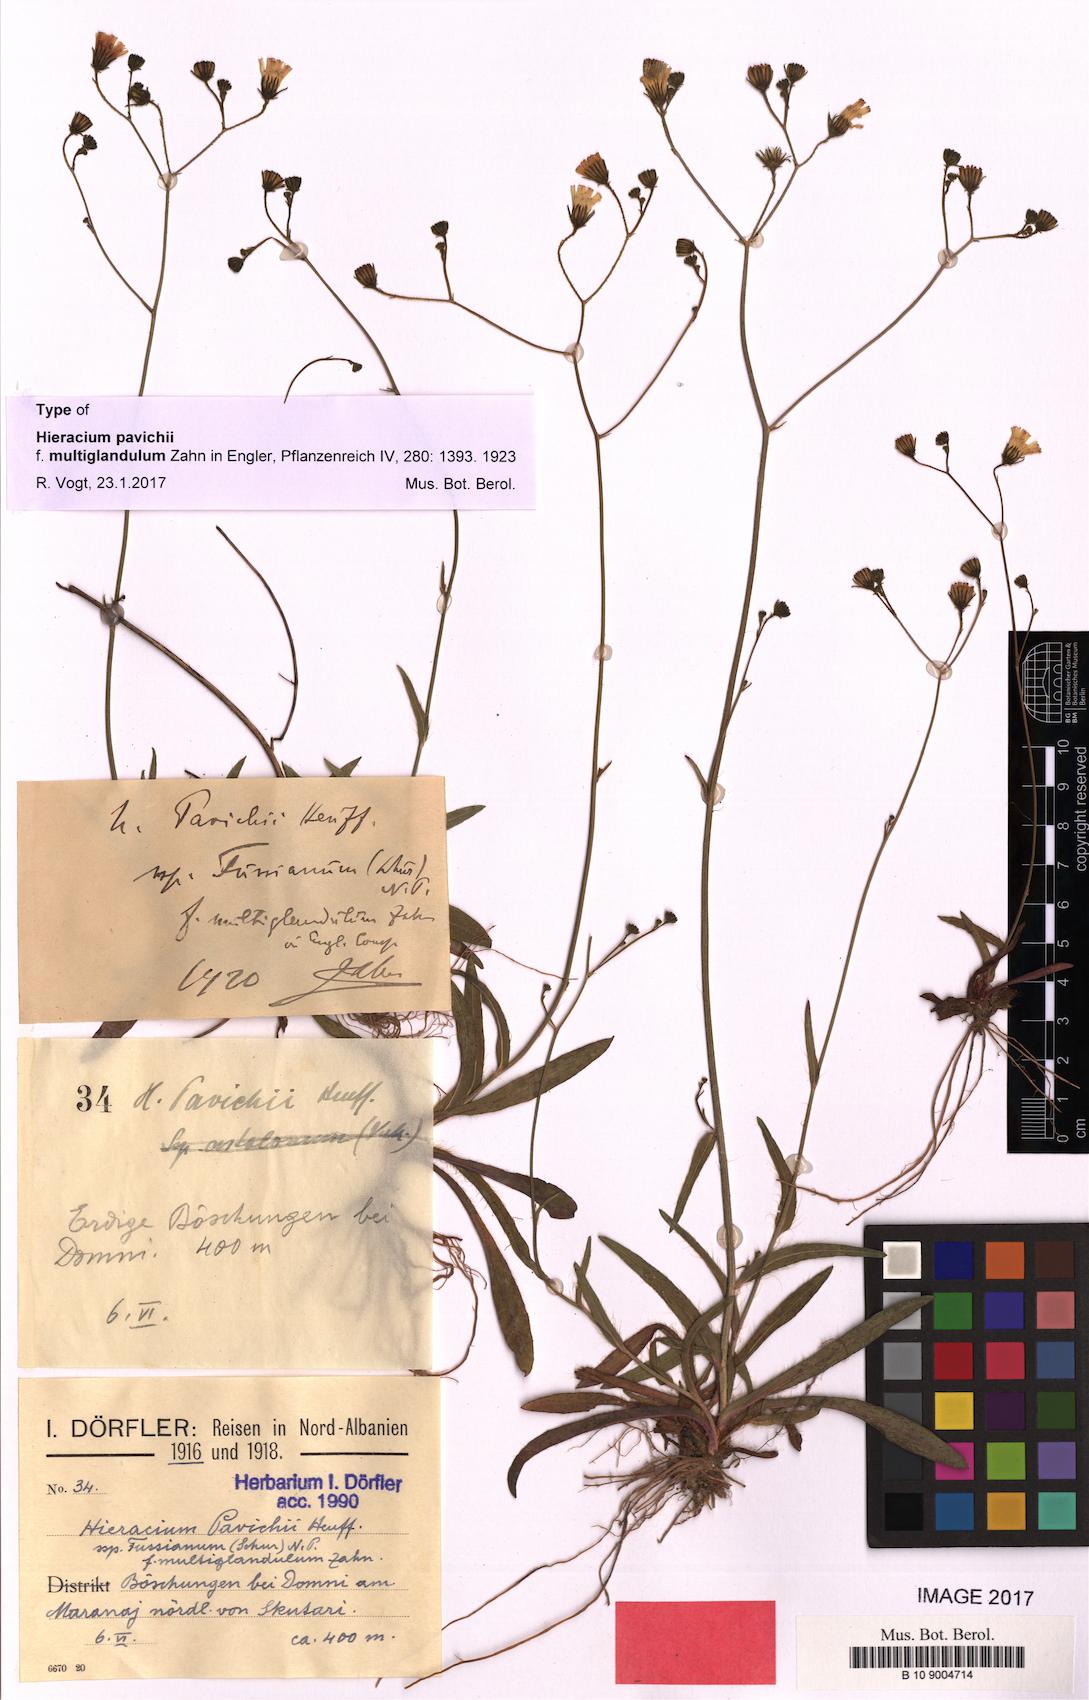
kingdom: Plantae
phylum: Tracheophyta
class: Magnoliopsida
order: Asterales
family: Asteraceae
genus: Pilosella
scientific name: Pilosella pavichii
